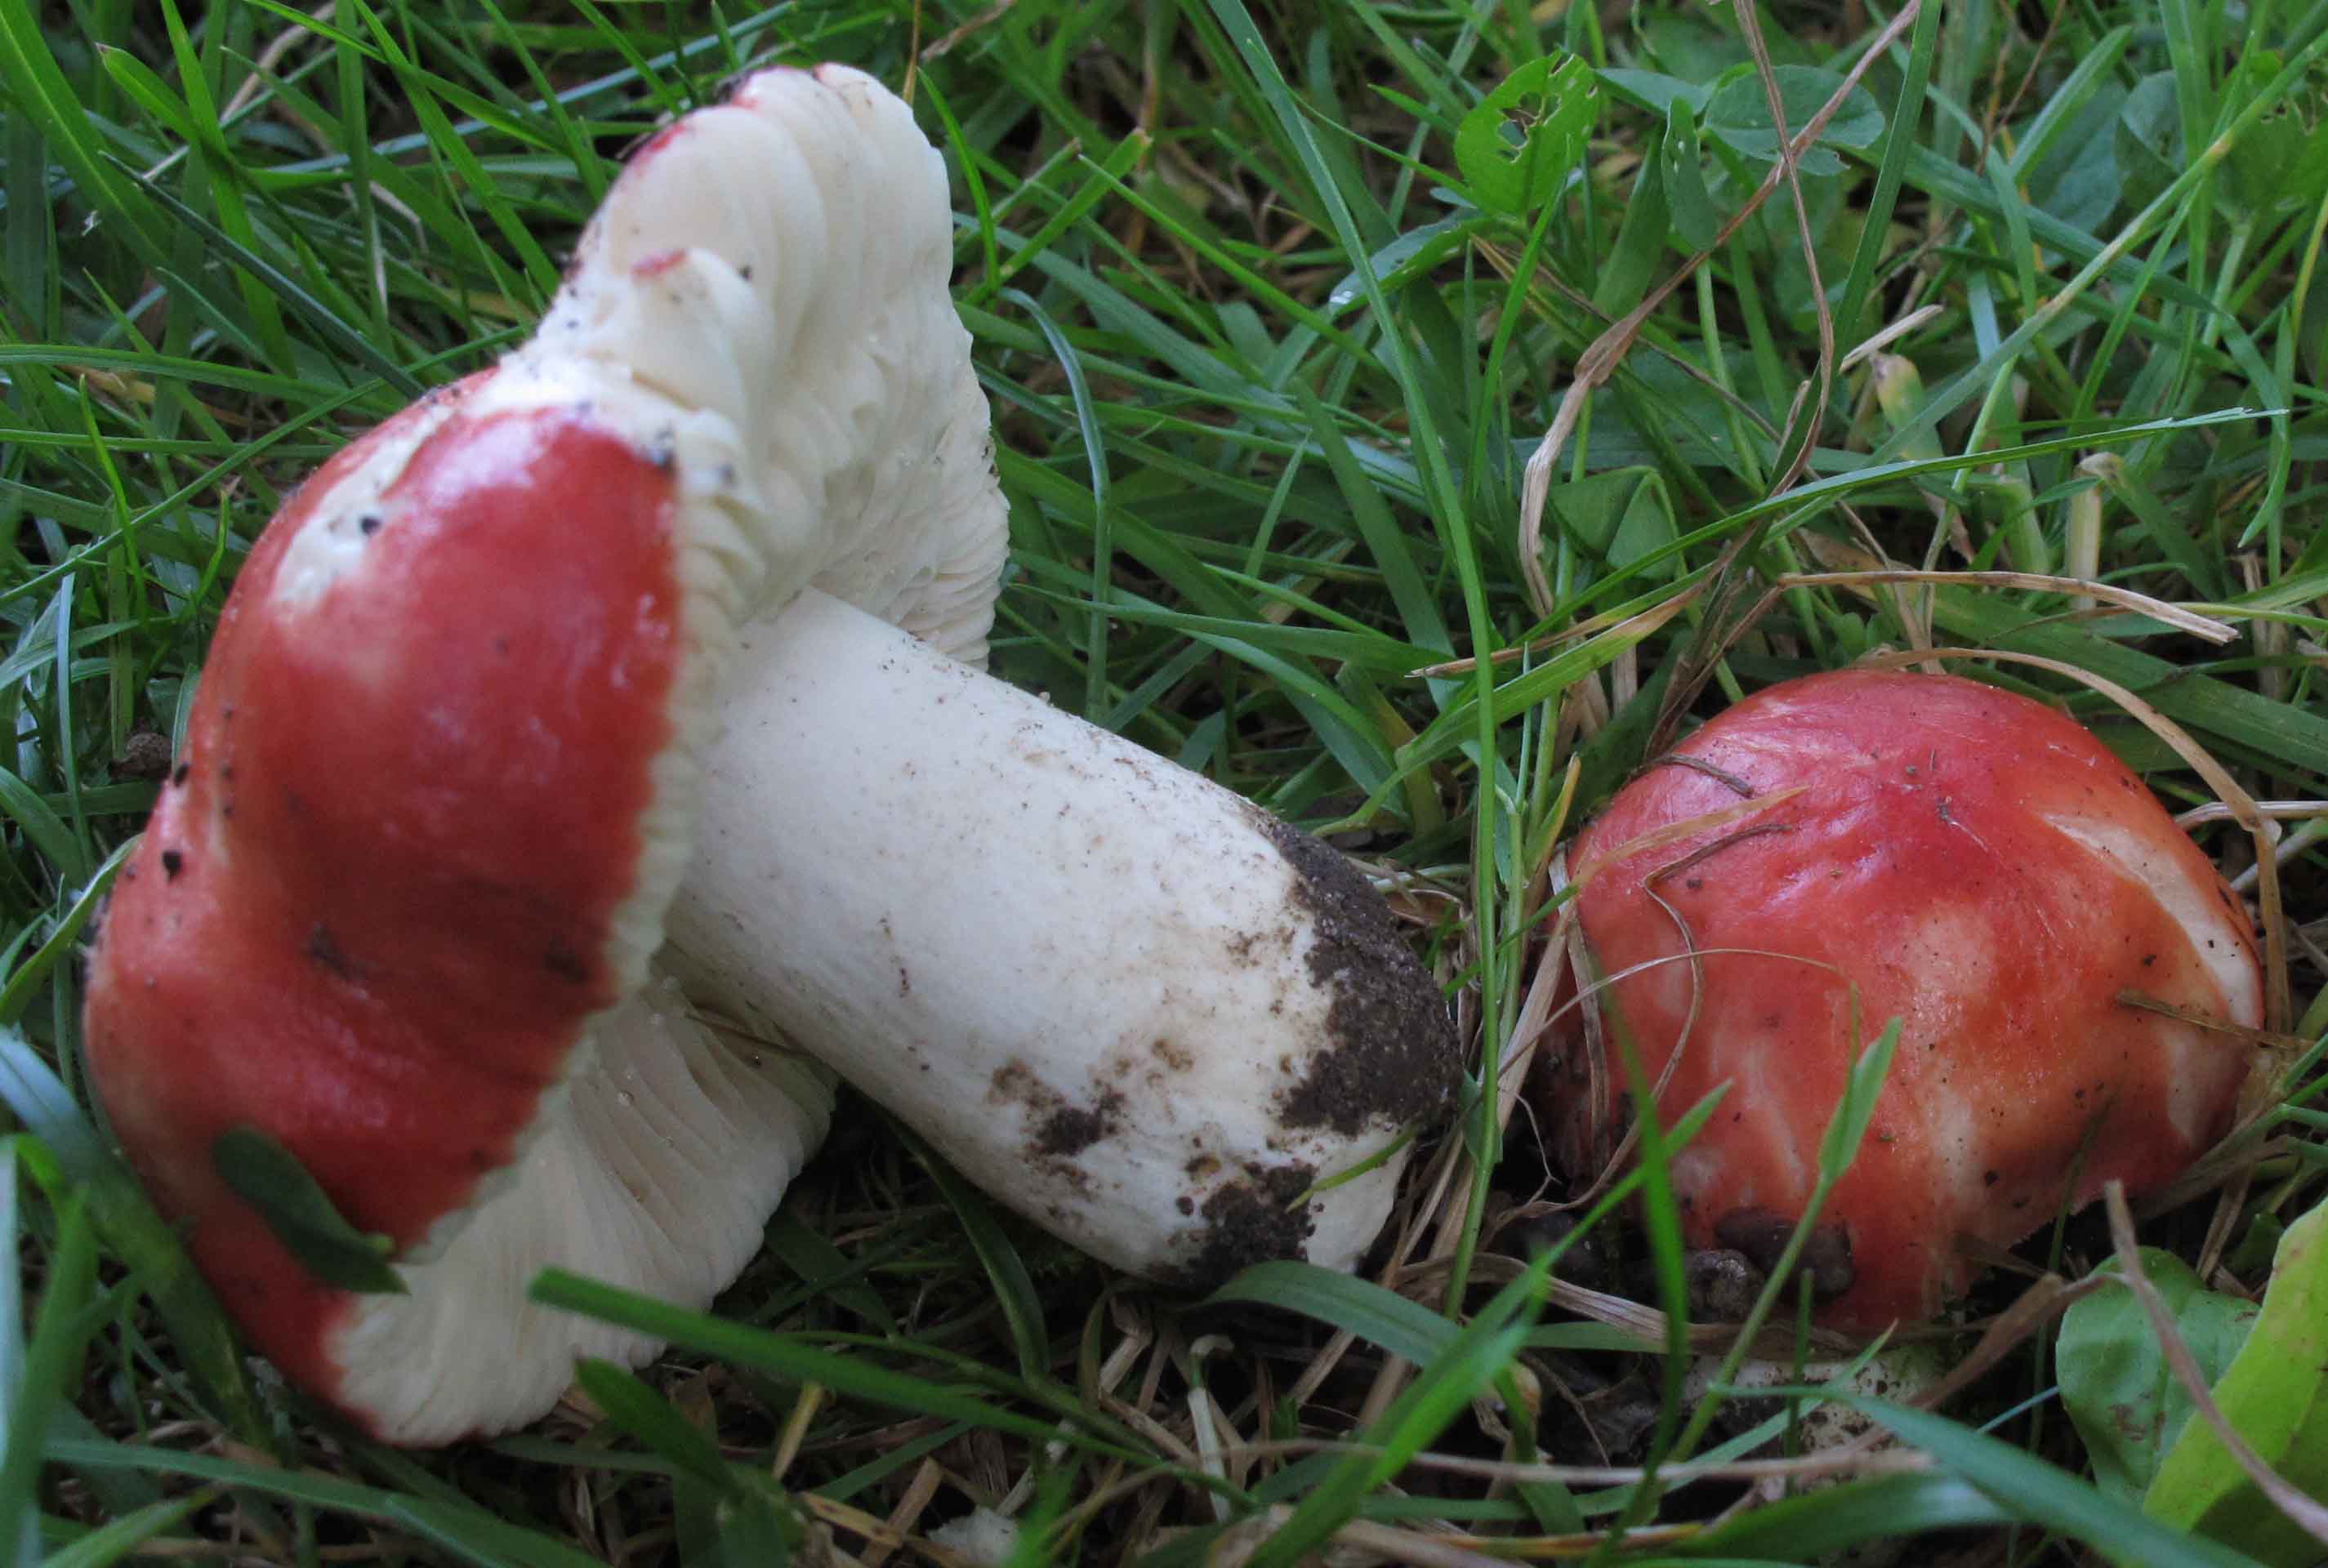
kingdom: Fungi
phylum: Basidiomycota
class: Agaricomycetes
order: Russulales
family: Russulaceae
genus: Russula
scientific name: Russula pseudointegra
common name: cinnoberrød skørhat
